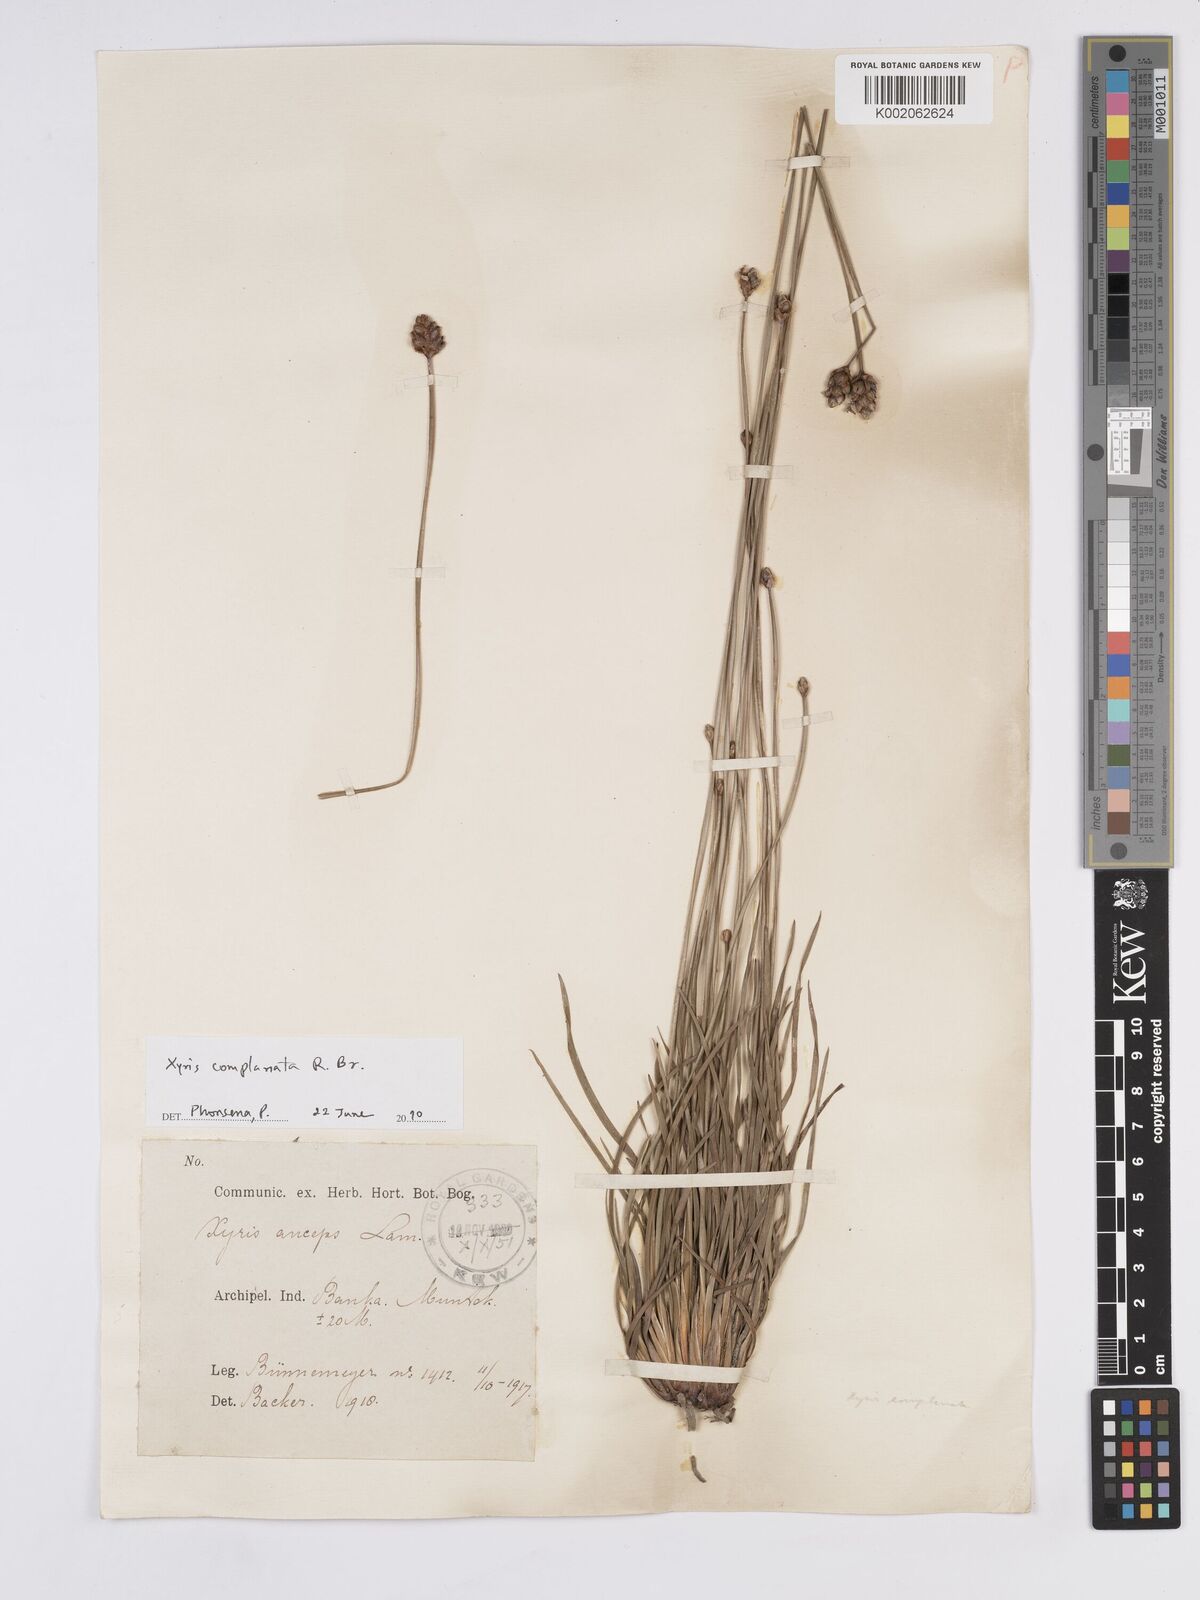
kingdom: Plantae
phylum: Tracheophyta
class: Liliopsida
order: Poales
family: Xyridaceae
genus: Xyris
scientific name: Xyris complanata
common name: Hawai'i yelloweyed grass
